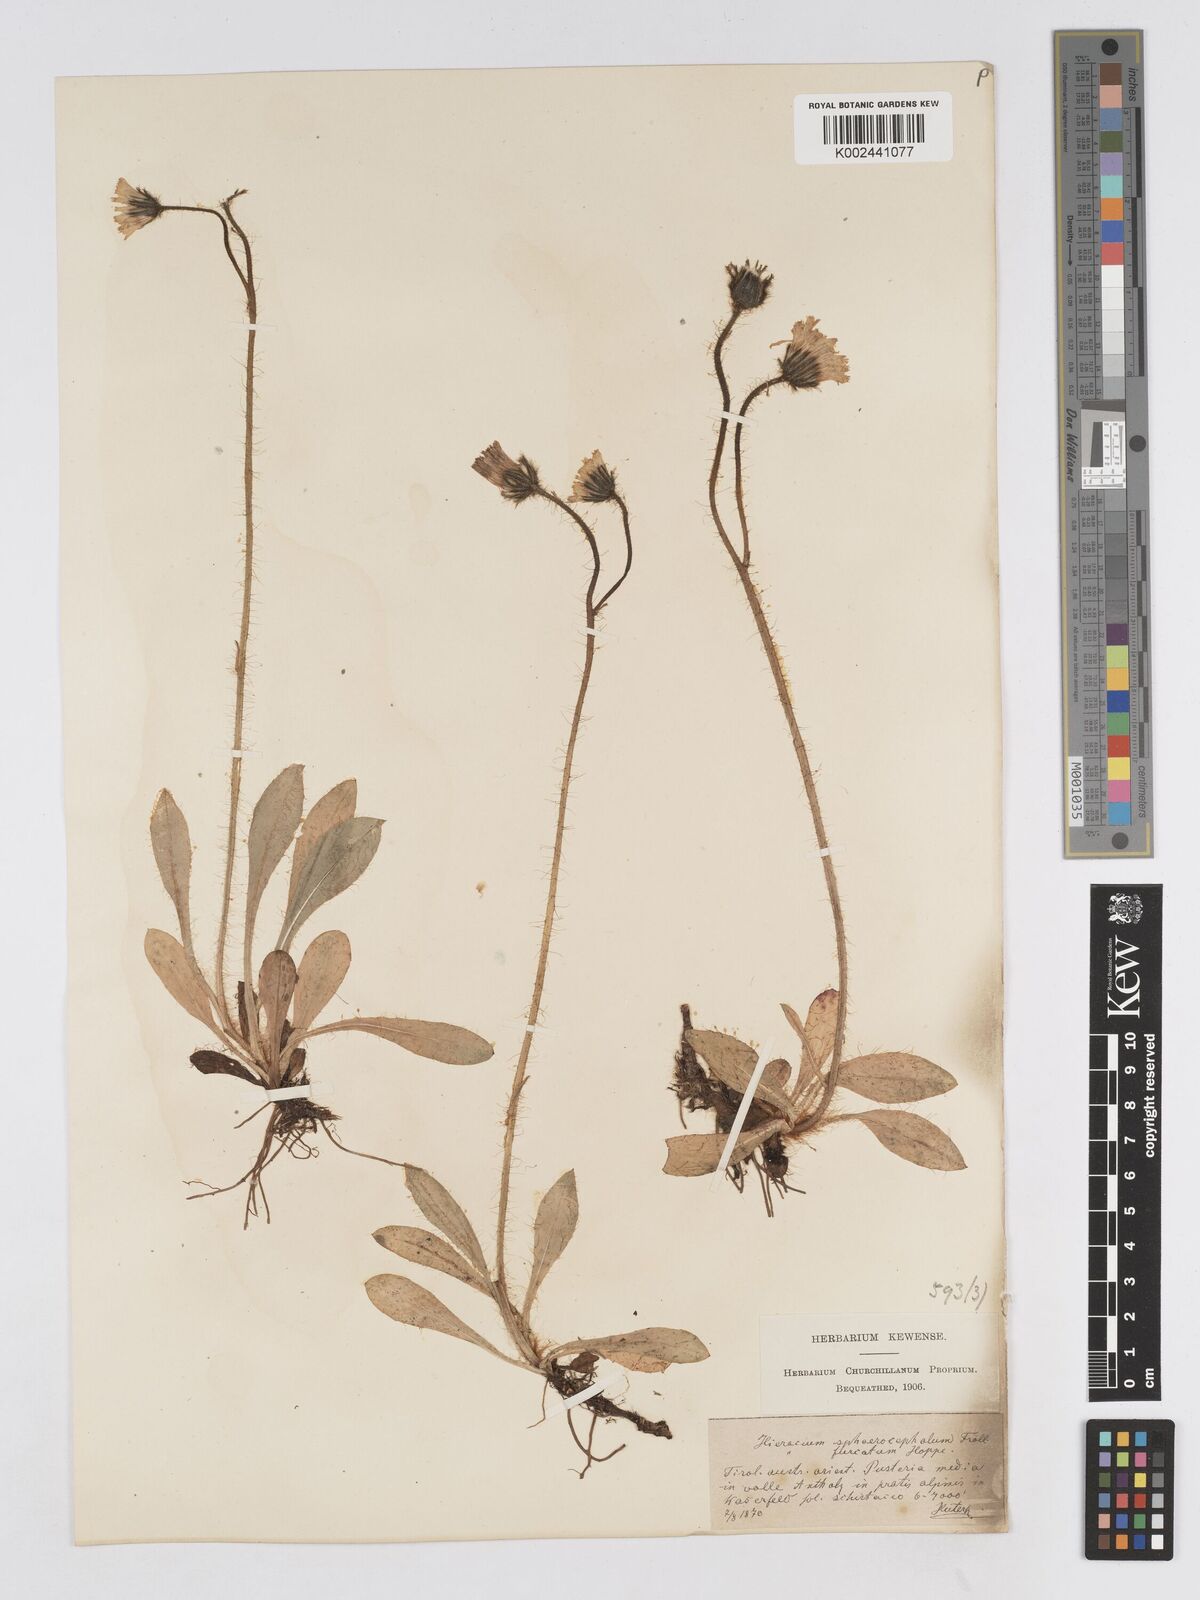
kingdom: Plantae
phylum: Tracheophyta
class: Magnoliopsida
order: Asterales
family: Asteraceae
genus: Pilosella
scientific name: Pilosella sphaerocephala
